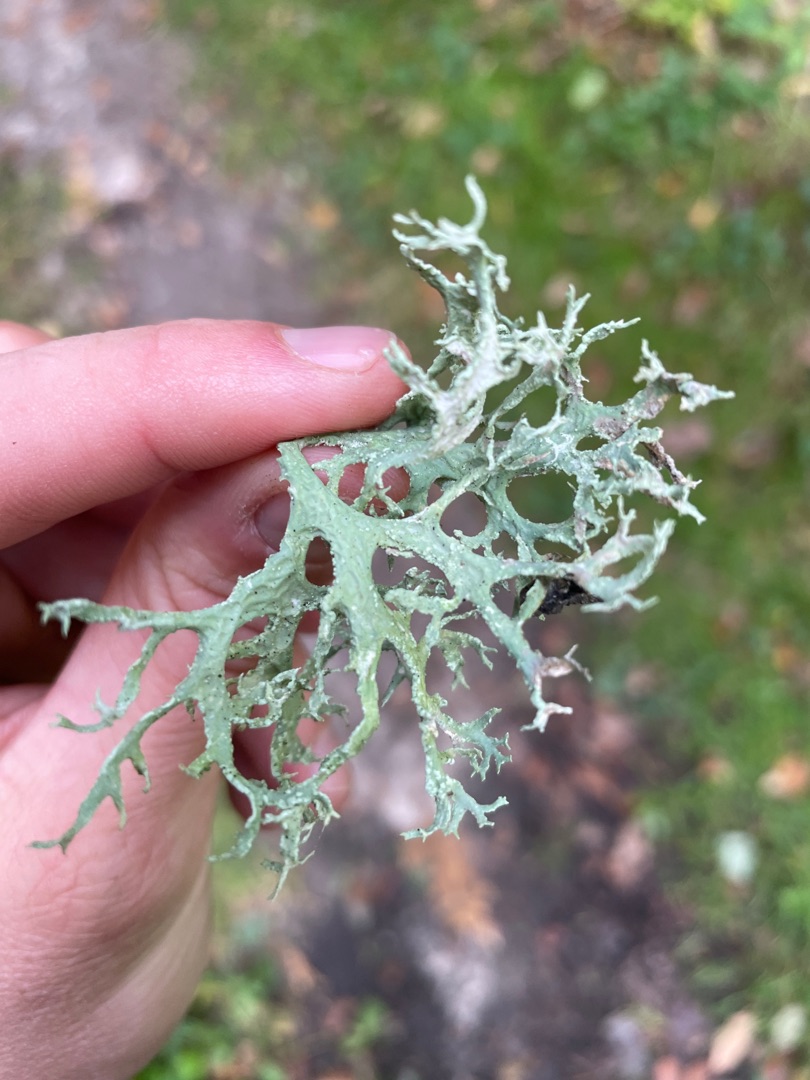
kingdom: Fungi
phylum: Ascomycota
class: Lecanoromycetes
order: Lecanorales
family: Parmeliaceae
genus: Evernia
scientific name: Evernia prunastri
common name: Almindelig slåenlav
